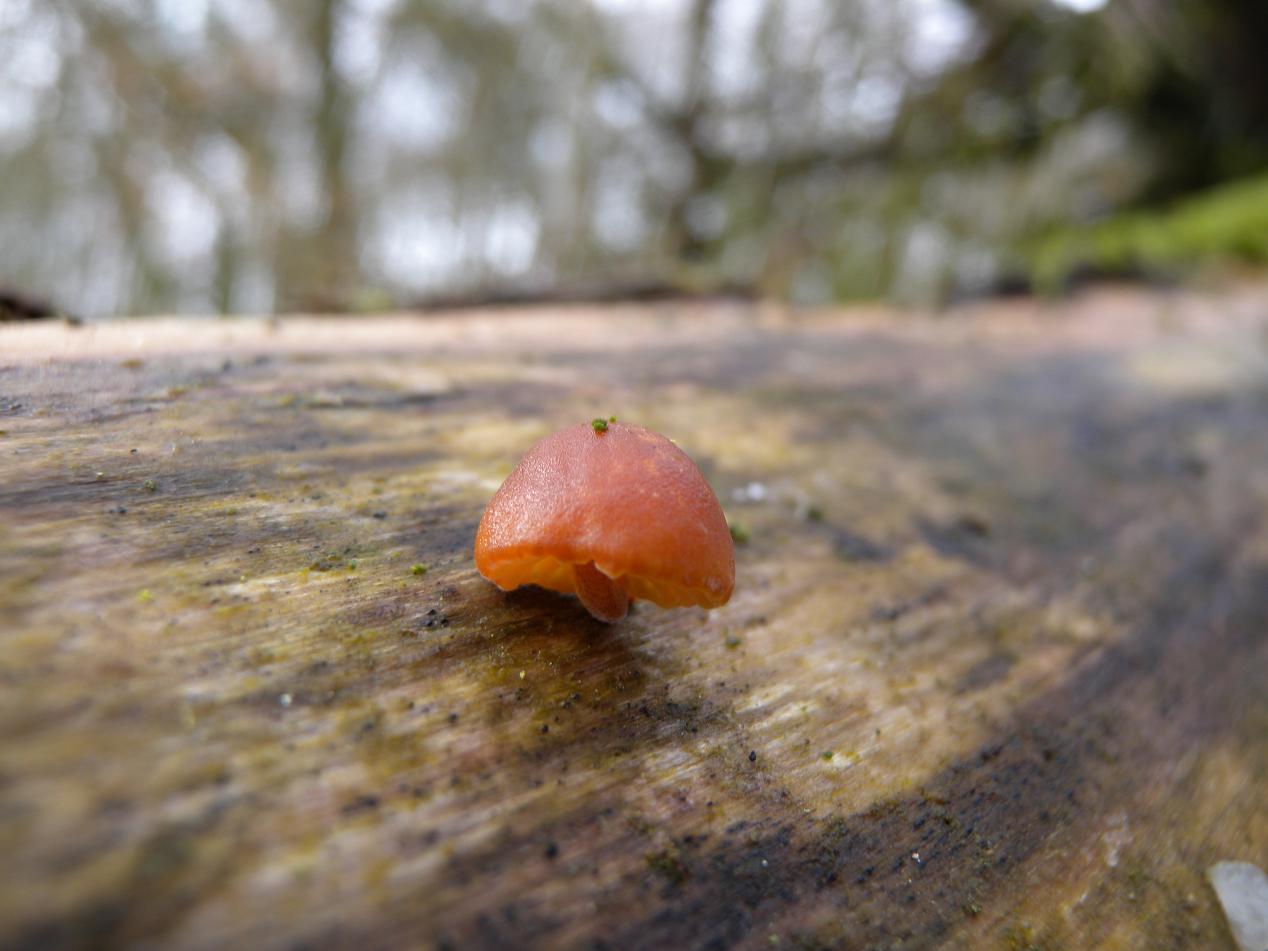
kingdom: Fungi
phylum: Basidiomycota
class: Agaricomycetes
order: Agaricales
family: Physalacriaceae
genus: Flammulina
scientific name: Flammulina elastica
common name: pile-fløjlsfod
